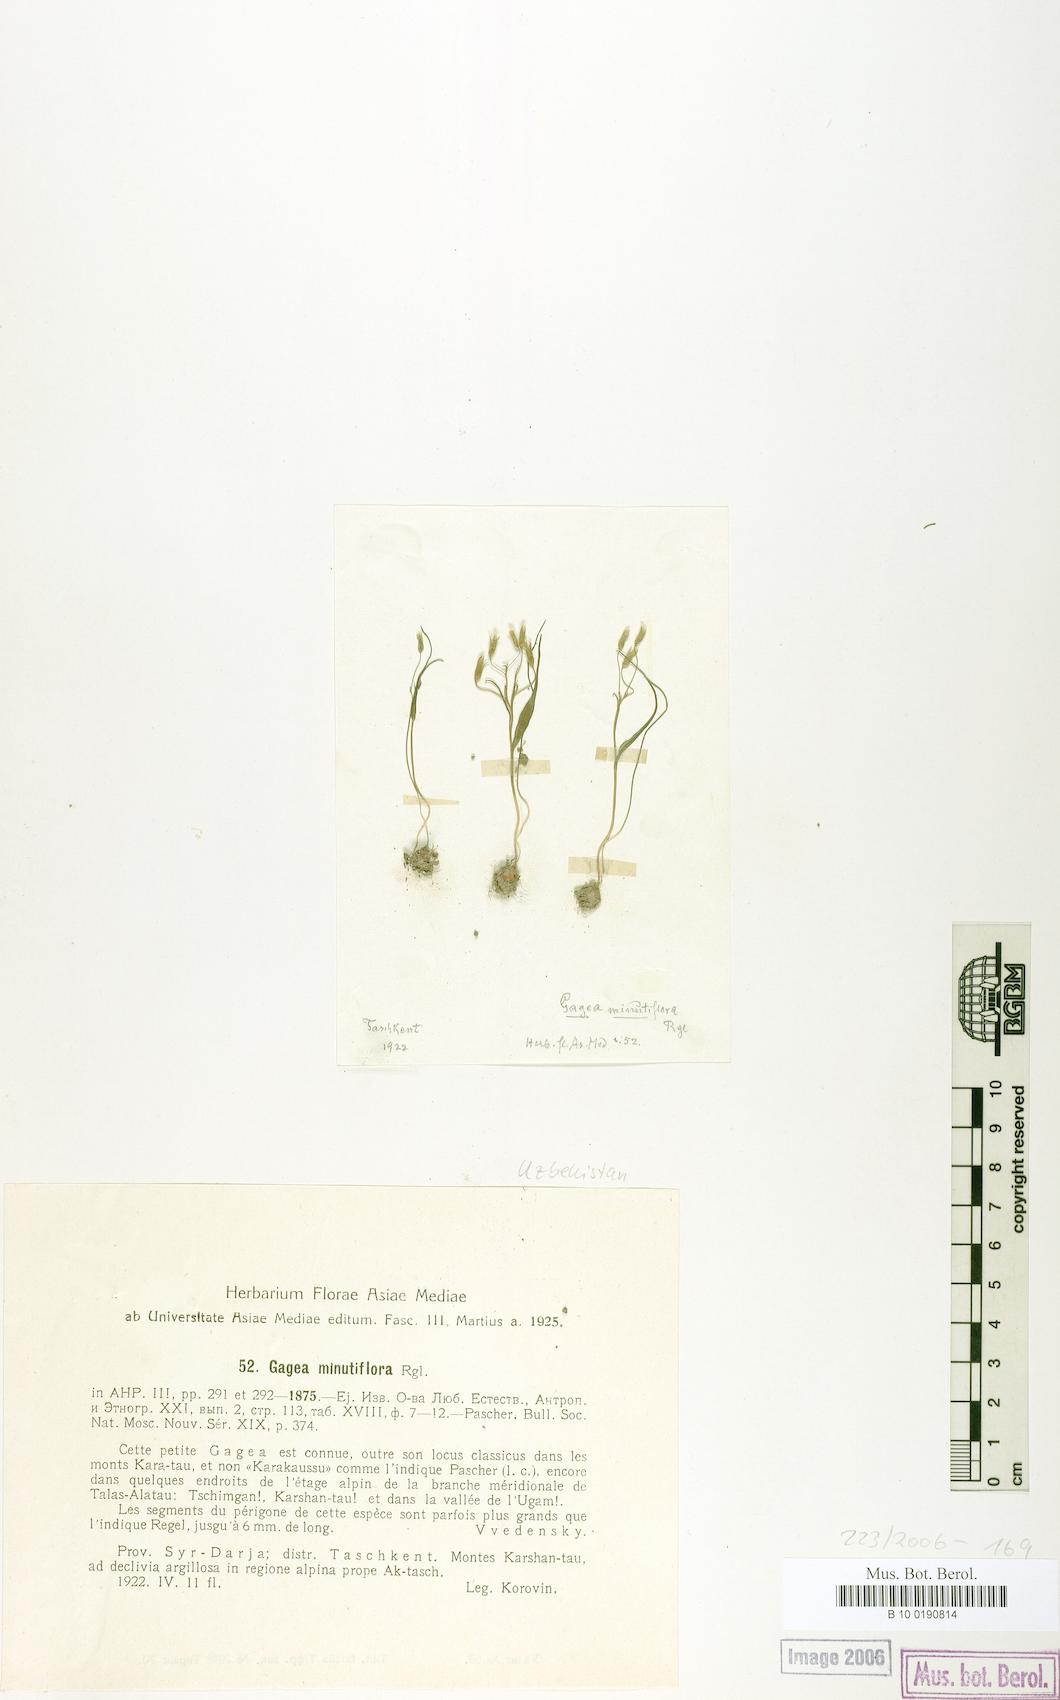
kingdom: Plantae
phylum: Tracheophyta
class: Liliopsida
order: Liliales
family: Liliaceae
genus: Gagea
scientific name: Gagea minutiflora
